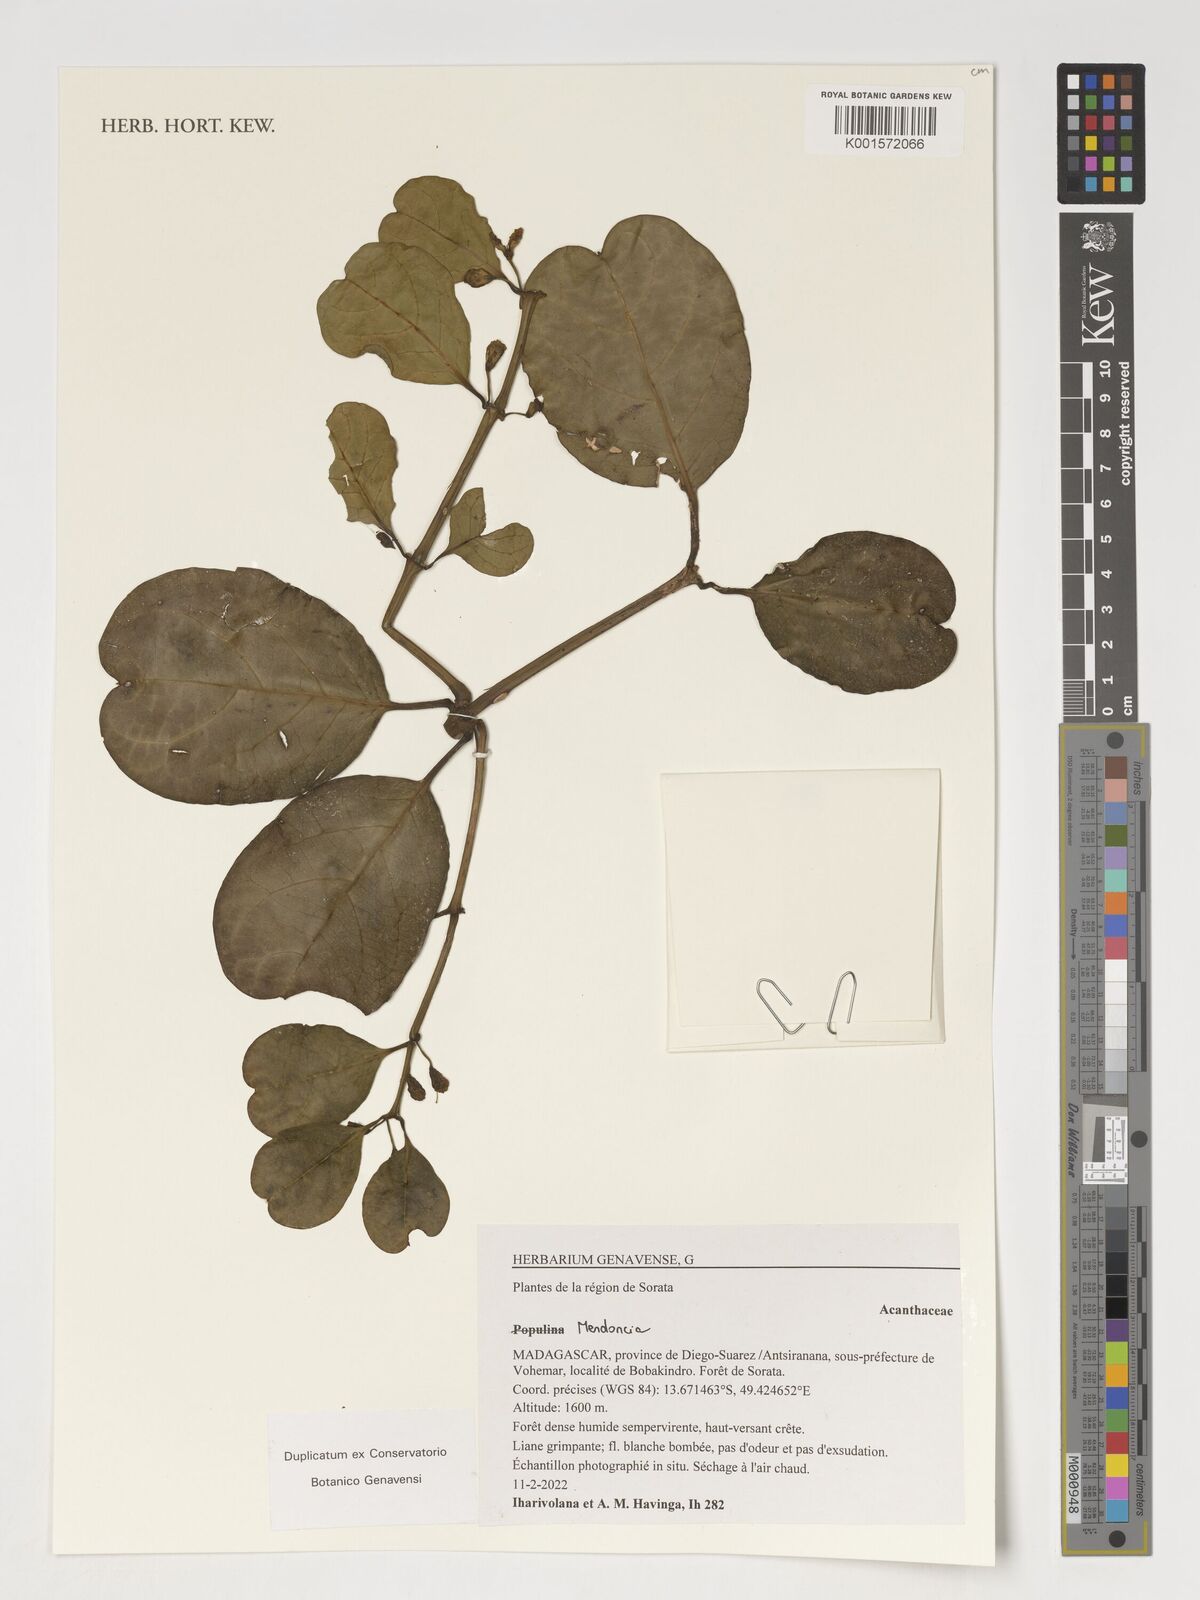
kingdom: Plantae
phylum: Tracheophyta
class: Magnoliopsida
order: Lamiales
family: Acanthaceae
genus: Populina
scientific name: Populina
